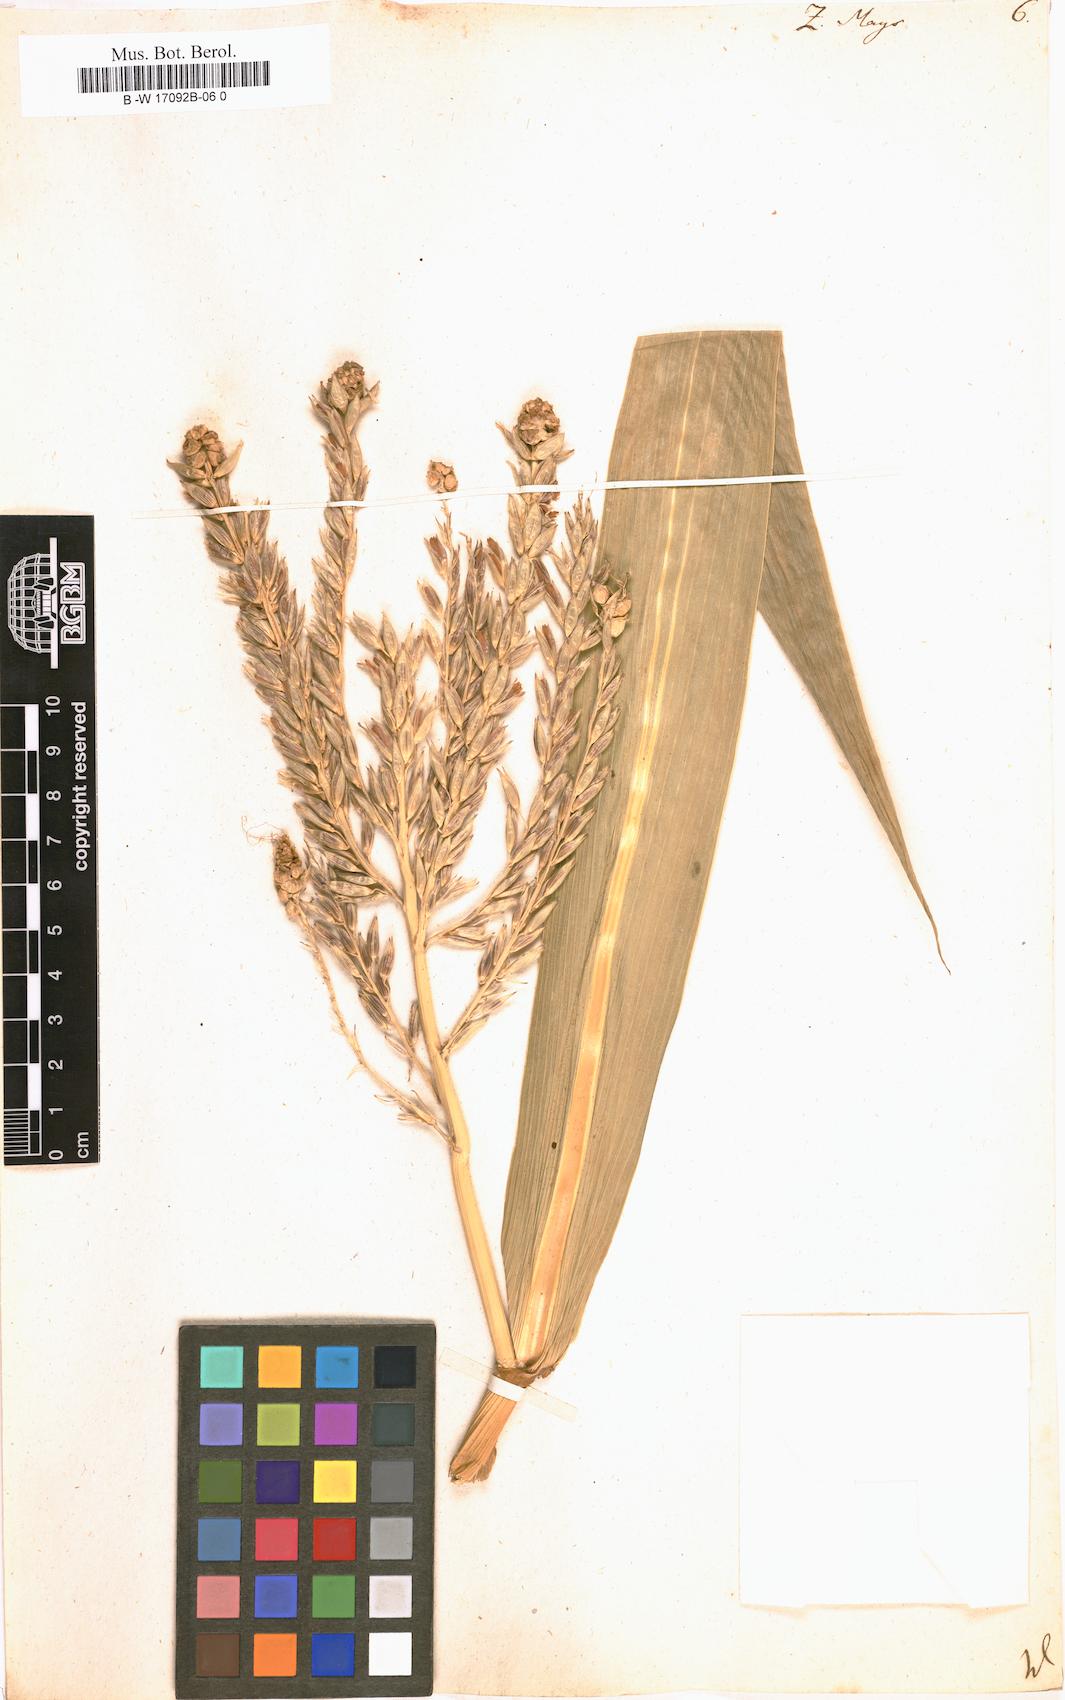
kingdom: Plantae
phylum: Tracheophyta
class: Liliopsida
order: Poales
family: Poaceae
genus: Zea
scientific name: Zea mays
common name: Maize
